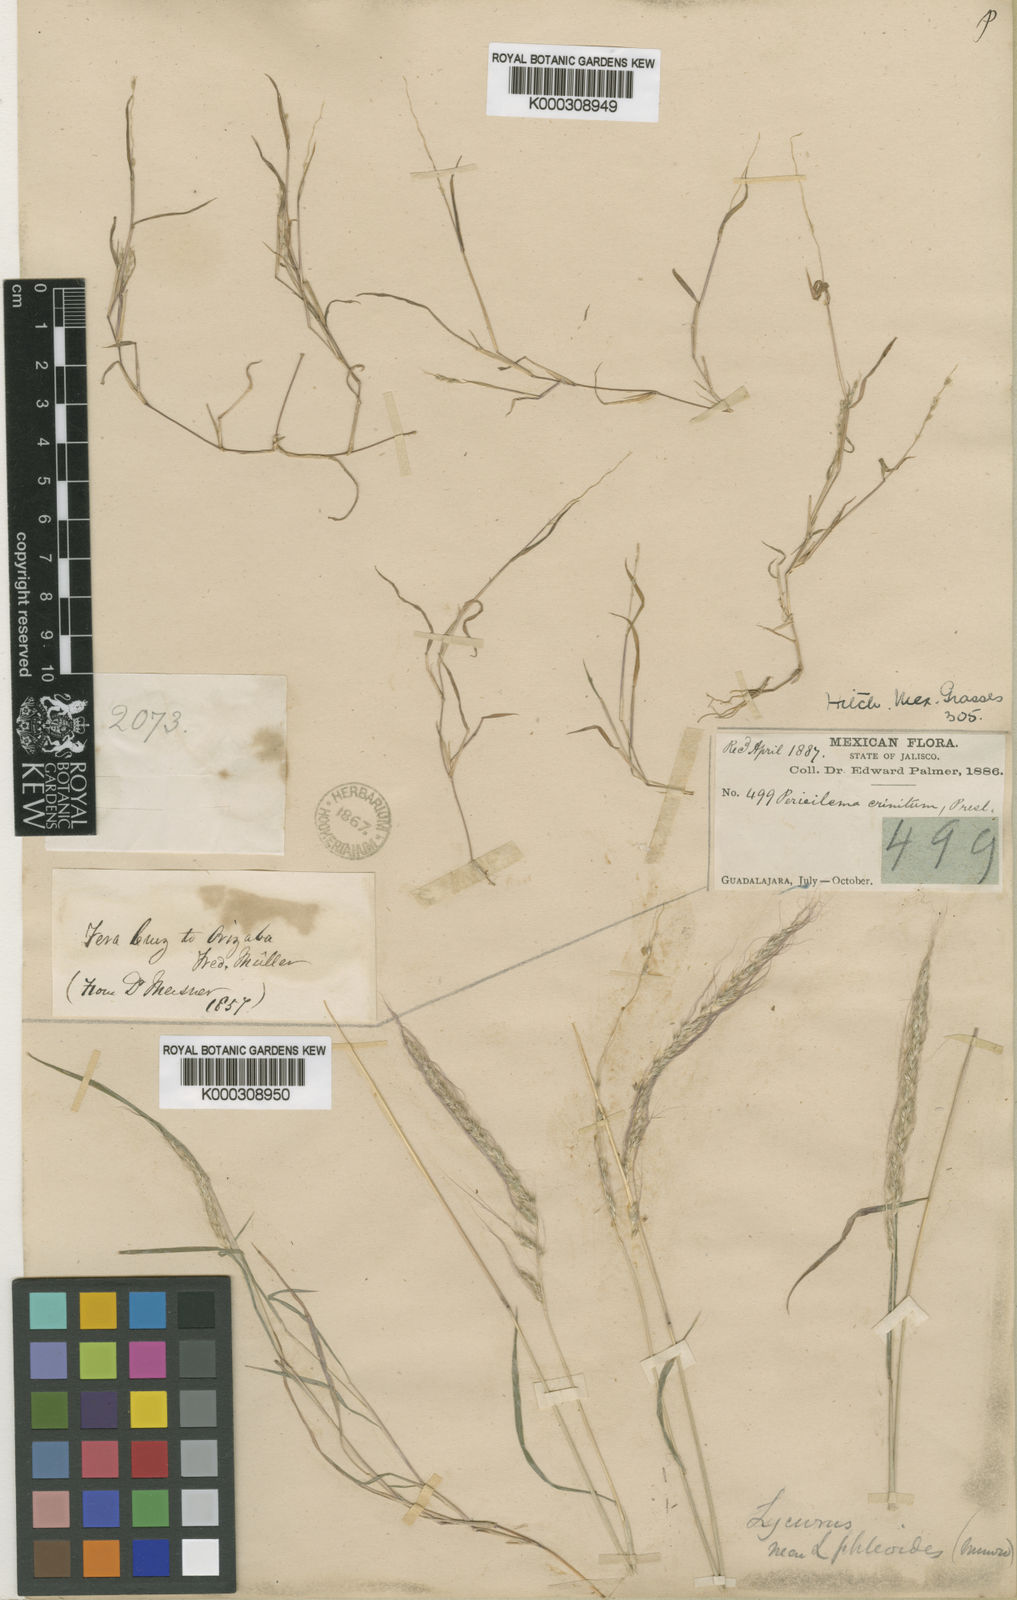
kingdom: Plantae
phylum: Tracheophyta
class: Liliopsida
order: Poales
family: Poaceae
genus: Muhlenbergia
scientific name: Muhlenbergia plumiseta
